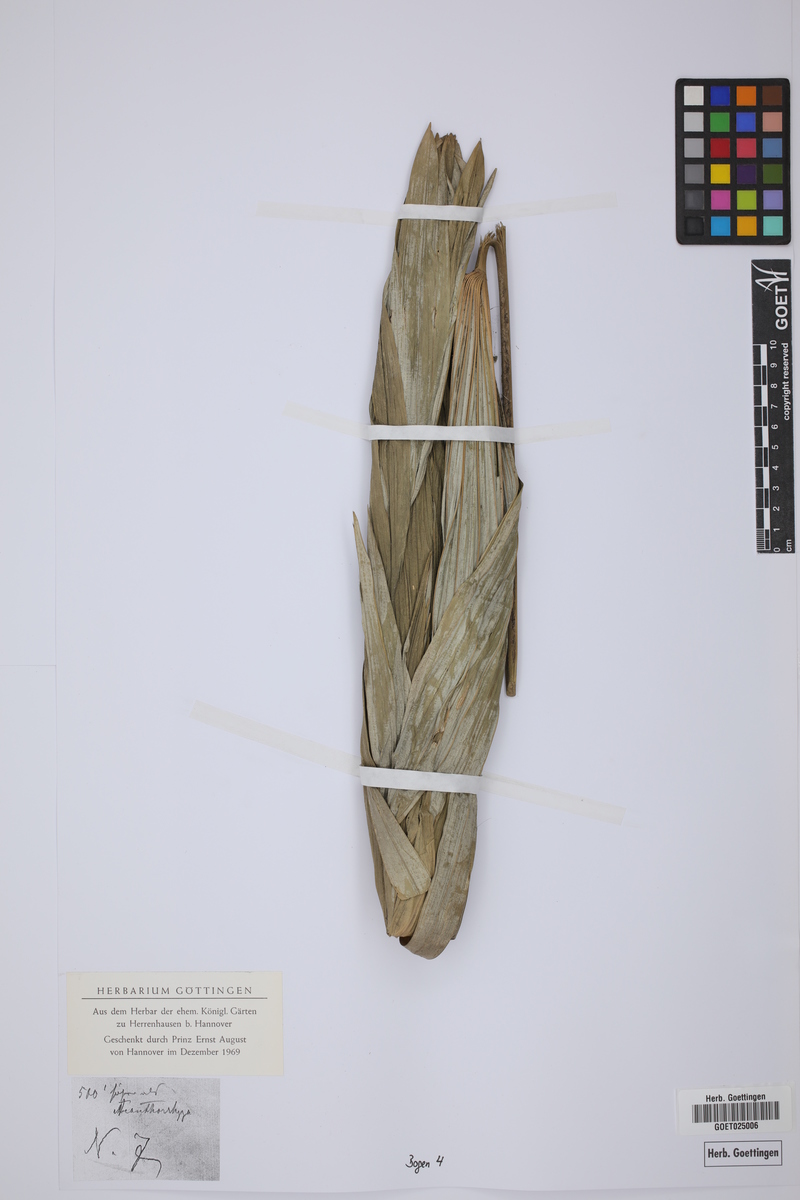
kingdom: Plantae
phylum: Tracheophyta
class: Liliopsida
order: Arecales
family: Arecaceae
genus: Chelyocarpus
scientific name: Chelyocarpus
